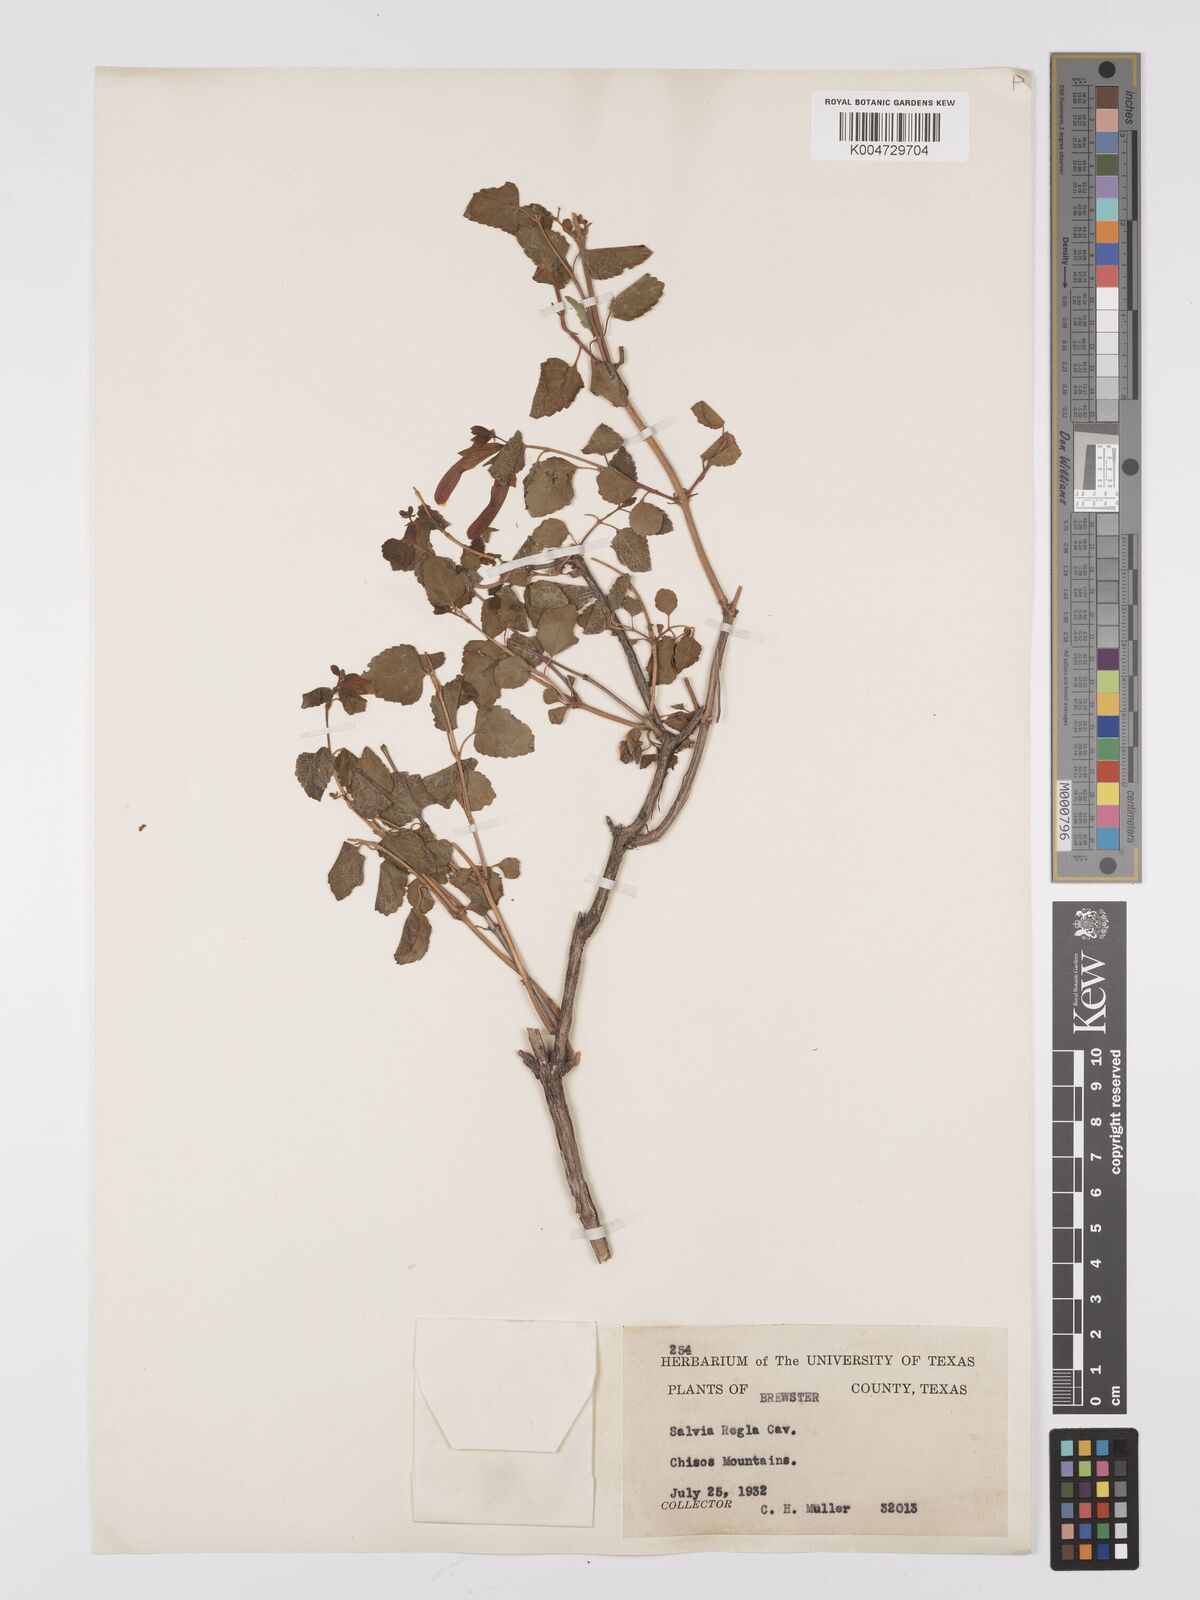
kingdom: Plantae
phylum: Tracheophyta
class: Magnoliopsida
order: Lamiales
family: Lamiaceae
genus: Salvia
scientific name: Salvia regla
